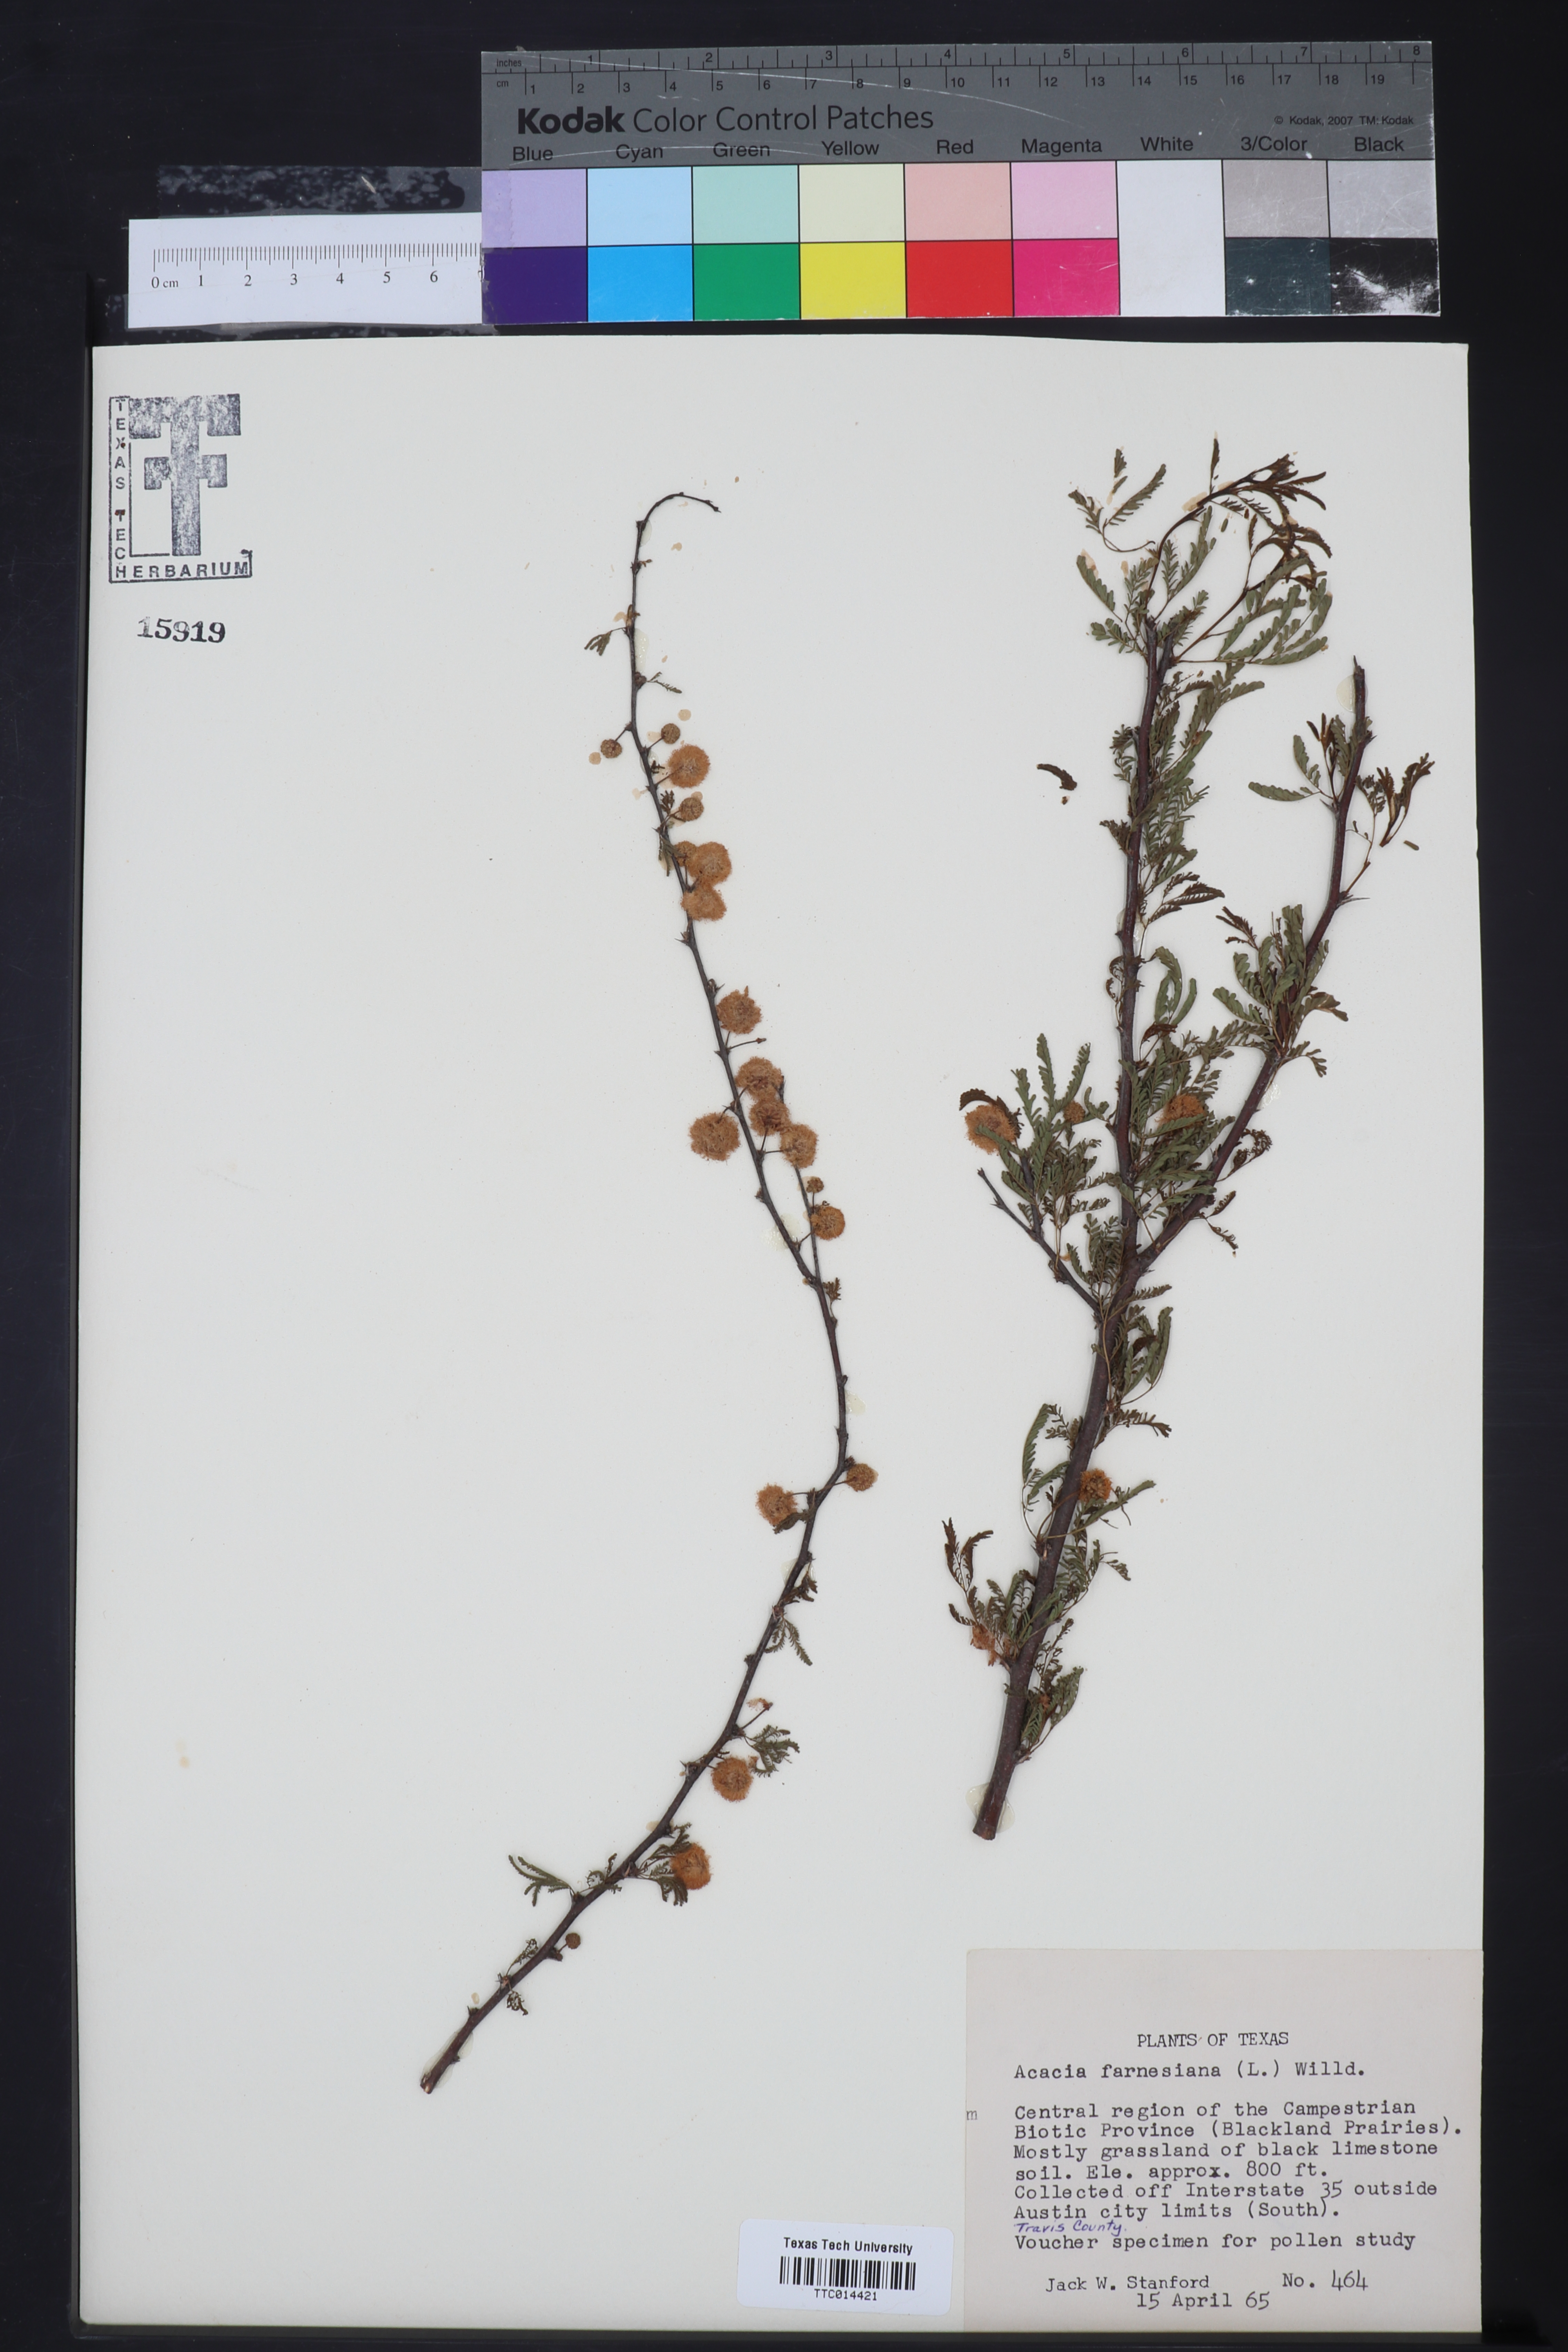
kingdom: Plantae
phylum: Tracheophyta
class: Magnoliopsida
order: Fabales
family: Fabaceae
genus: Vachellia
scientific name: Vachellia farnesiana
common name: Sweet acacia
